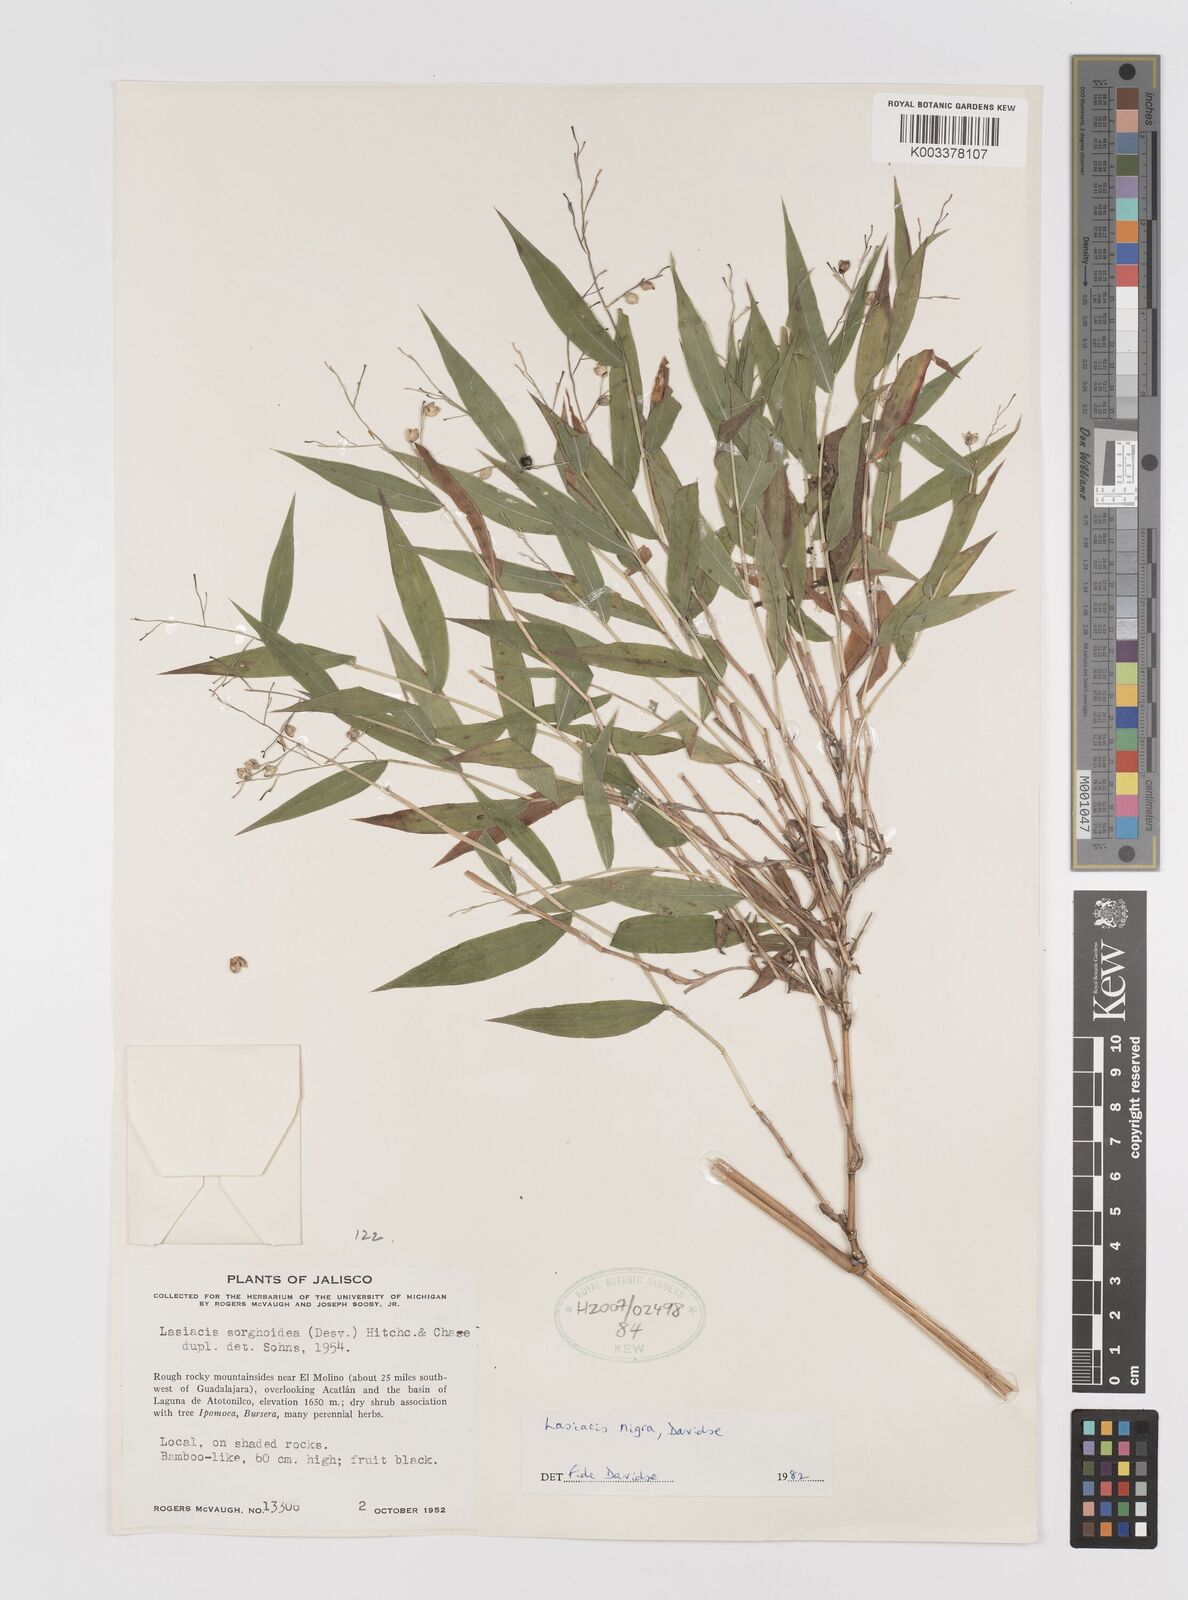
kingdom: Plantae
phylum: Tracheophyta
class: Liliopsida
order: Poales
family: Poaceae
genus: Lasiacis
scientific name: Lasiacis nigra
